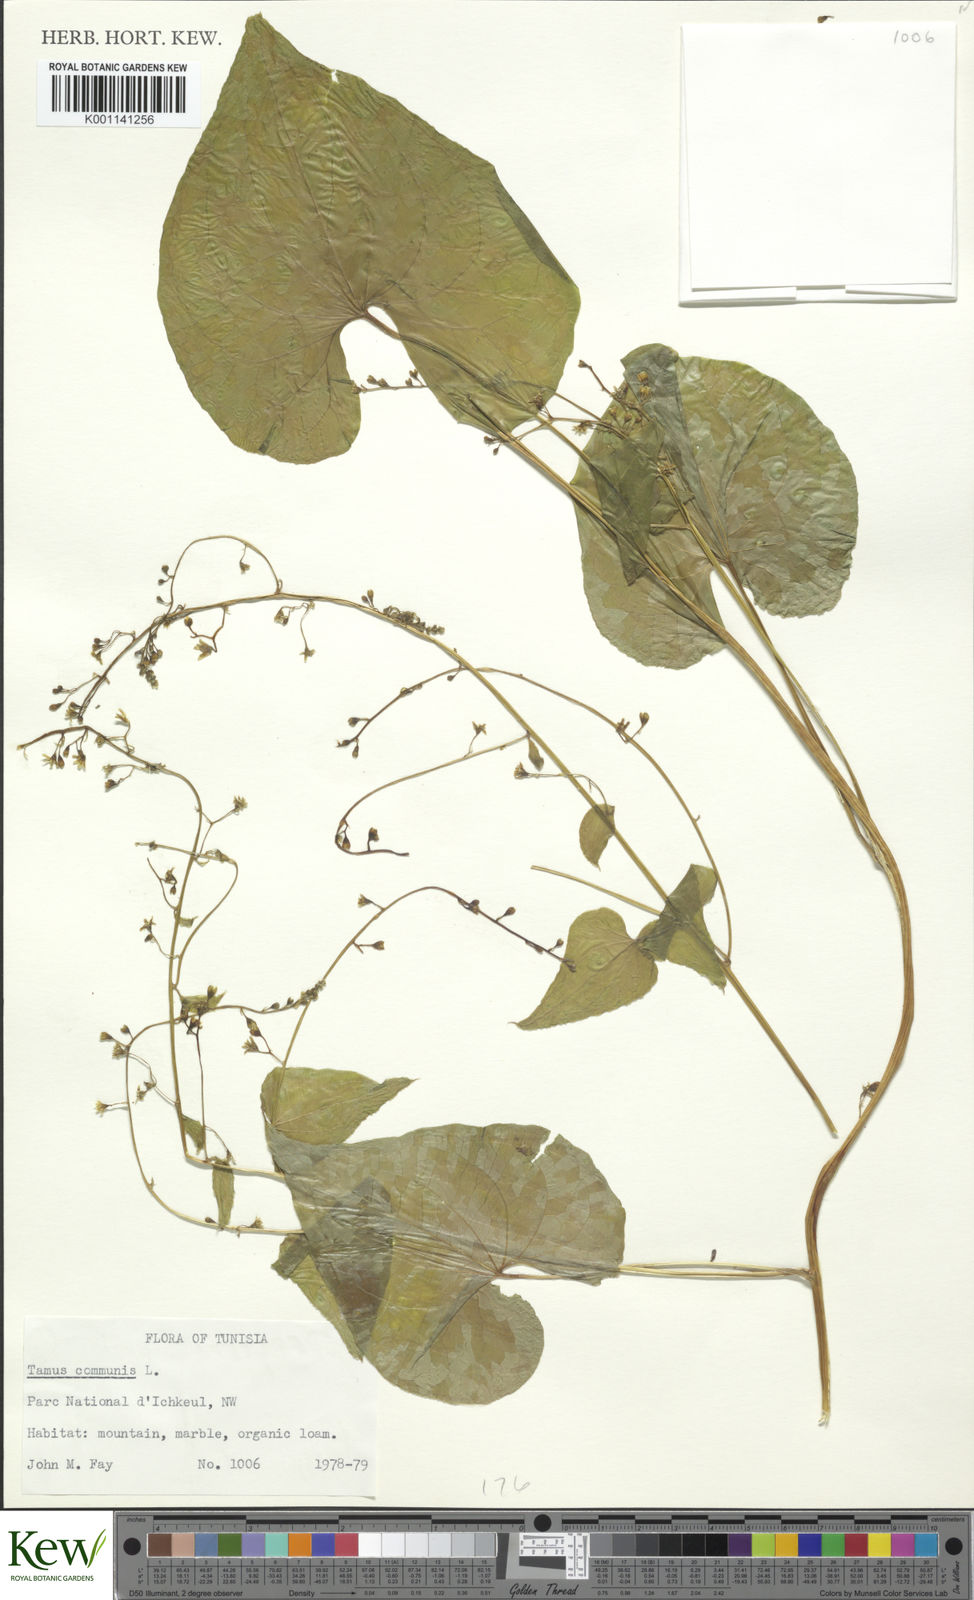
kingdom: Plantae
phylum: Tracheophyta
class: Liliopsida
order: Dioscoreales
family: Dioscoreaceae
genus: Dioscorea
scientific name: Dioscorea communis
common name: Black-bindweed
